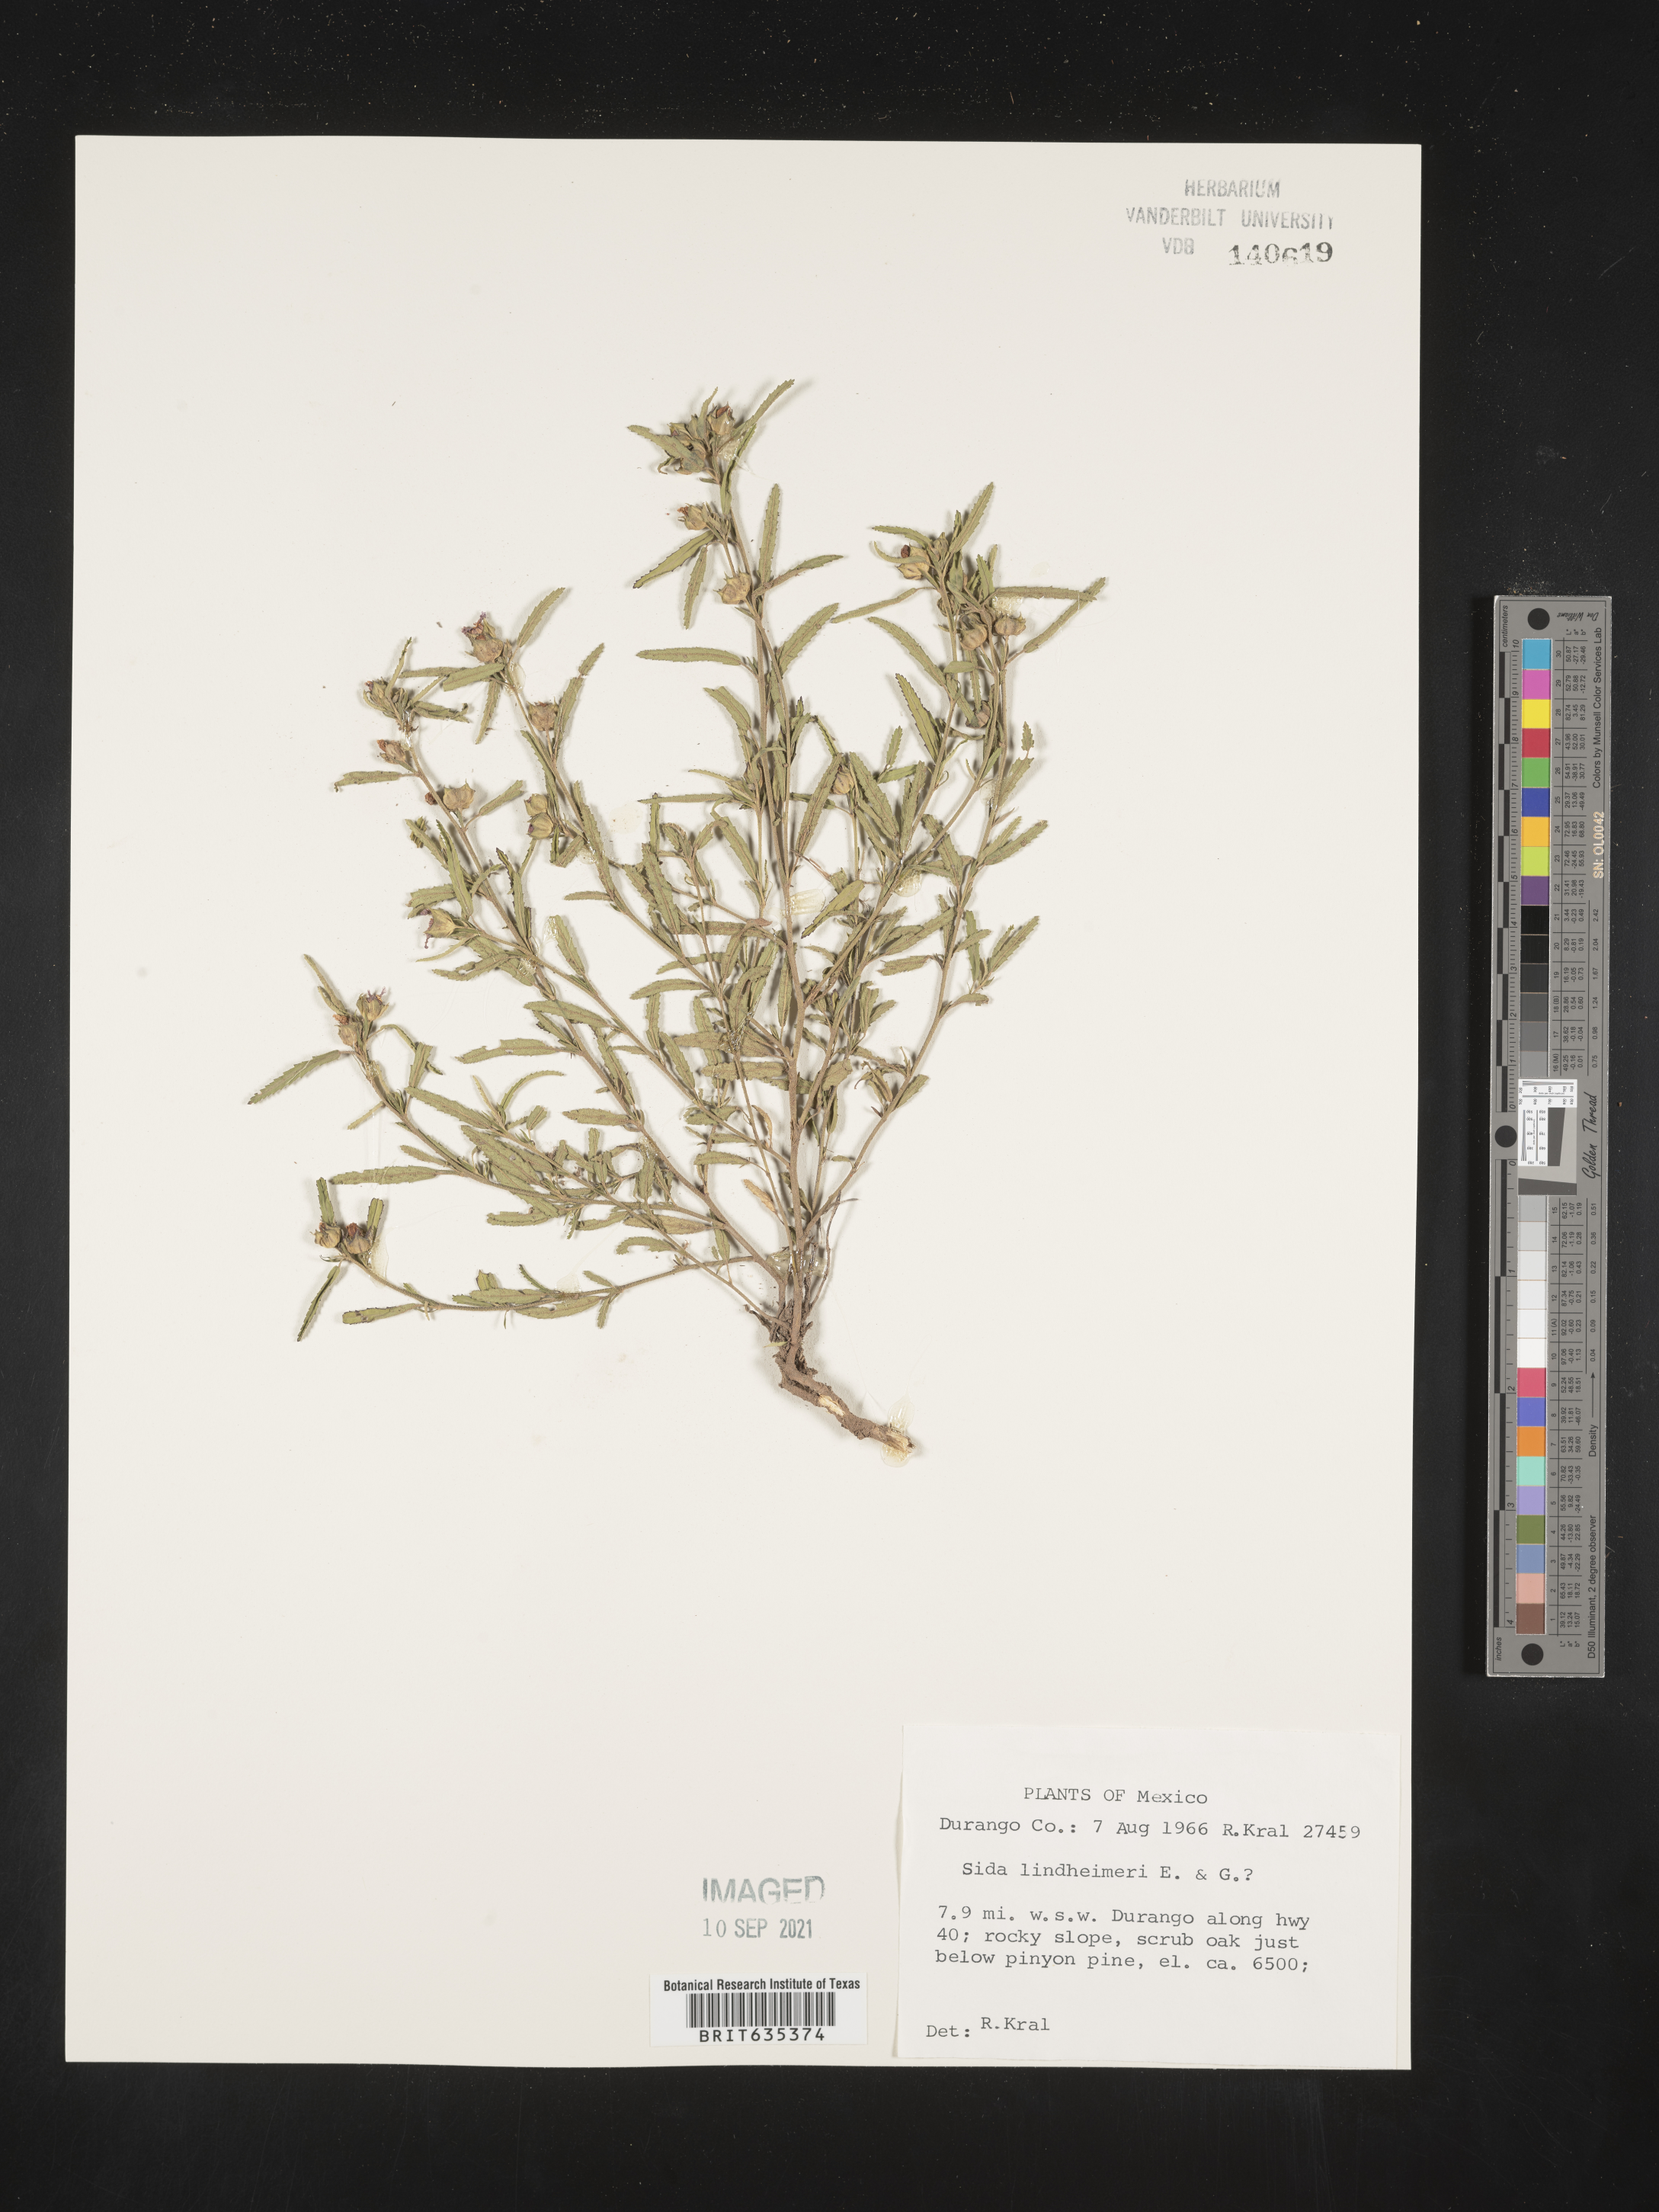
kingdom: Plantae
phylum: Tracheophyta
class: Magnoliopsida
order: Malvales
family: Malvaceae
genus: Sida
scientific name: Sida
